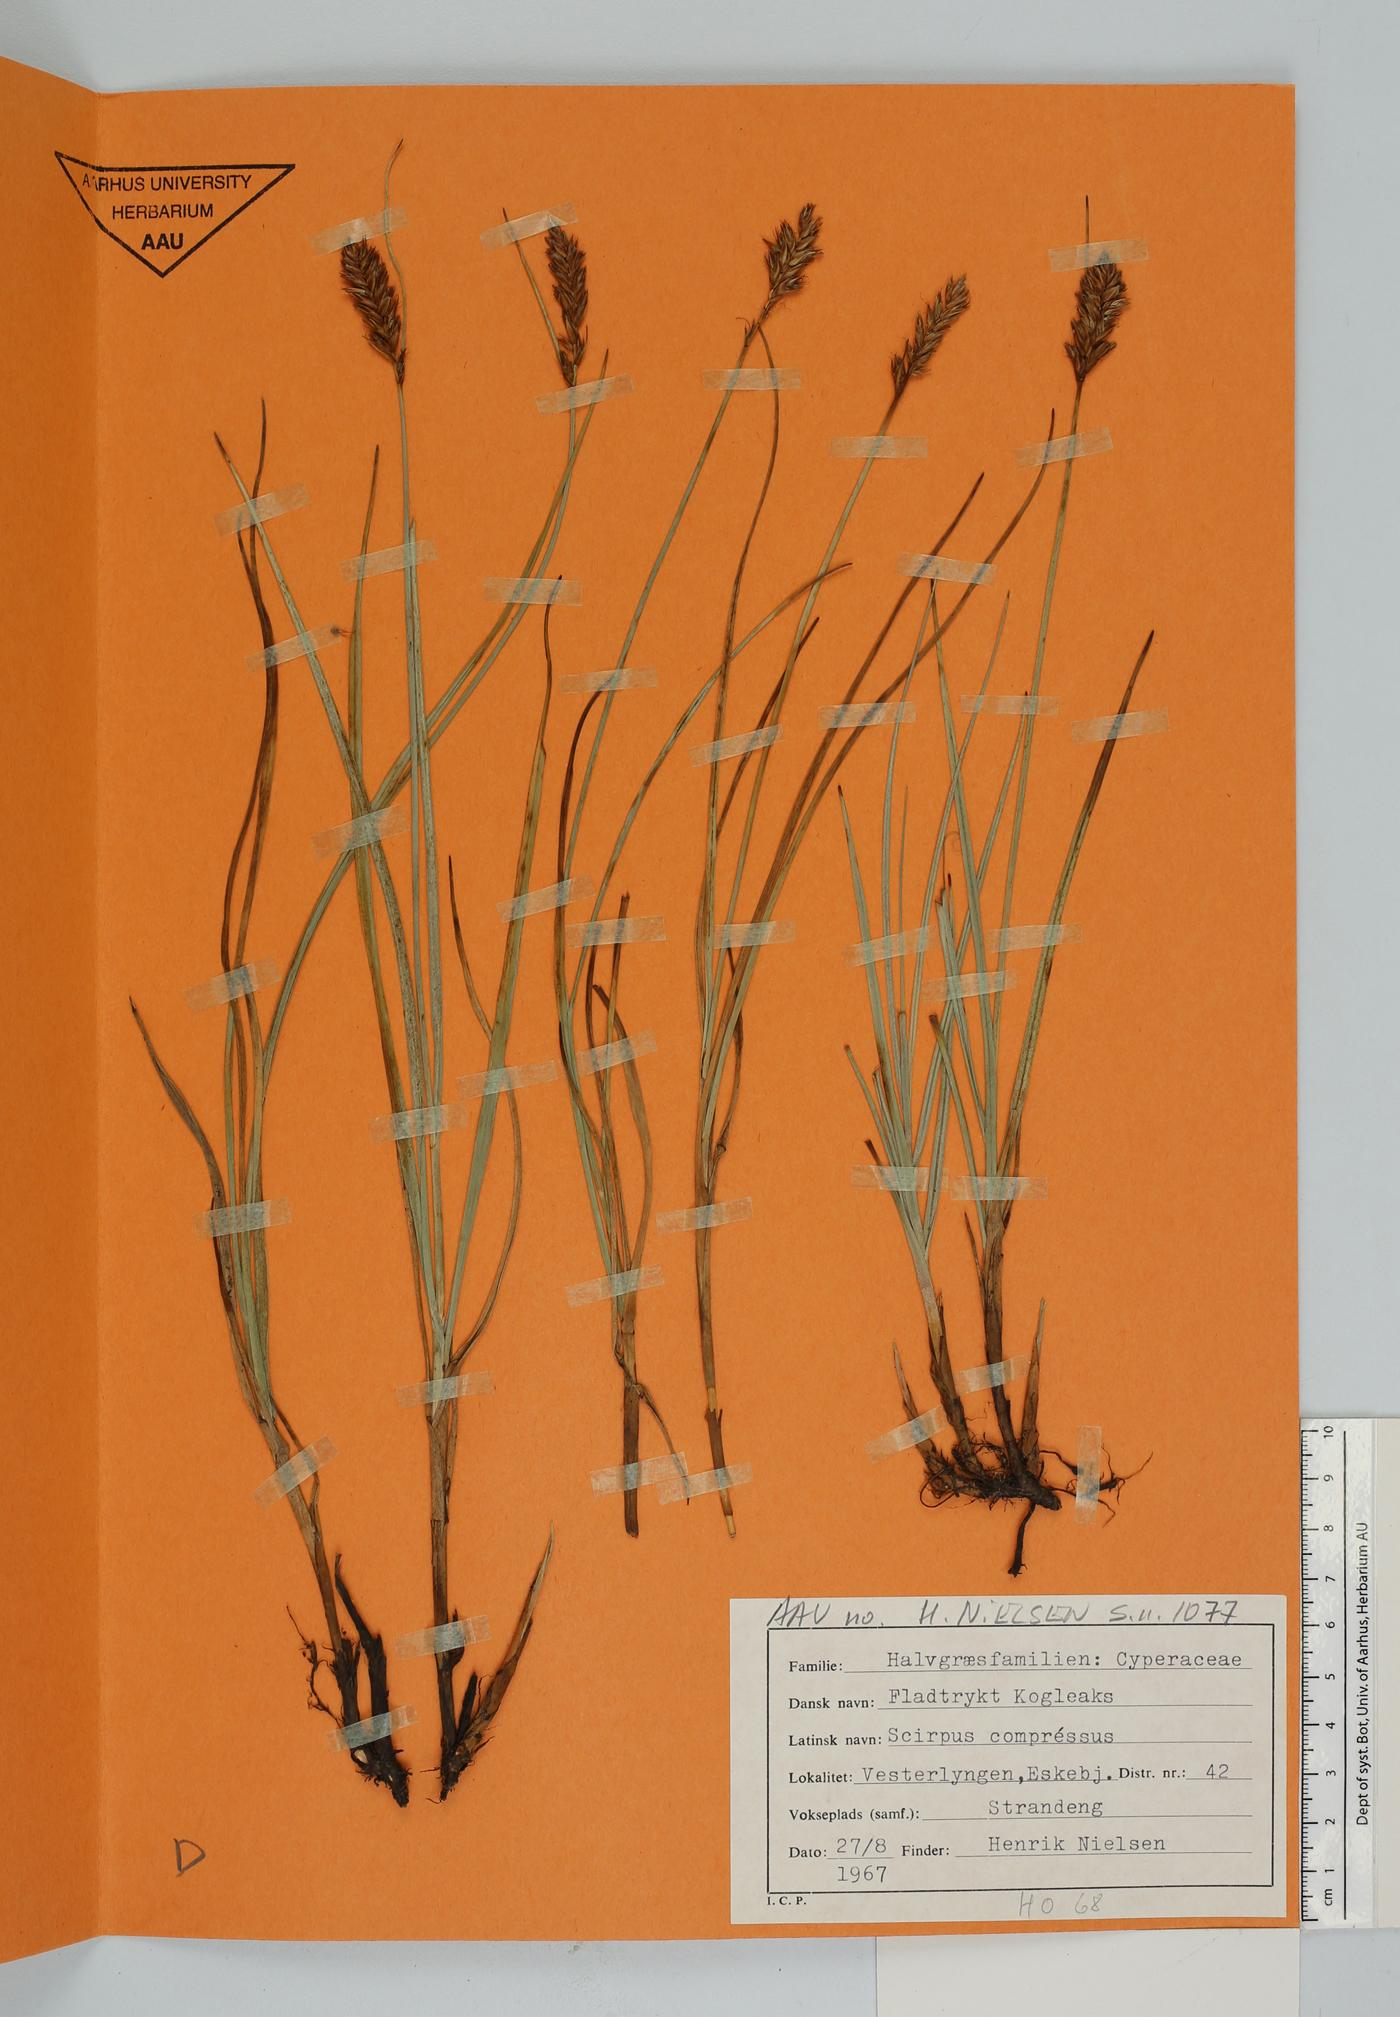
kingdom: Plantae
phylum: Tracheophyta
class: Liliopsida
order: Poales
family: Cyperaceae
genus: Eleocharis
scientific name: Eleocharis ovata
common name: Oval spike-rush
